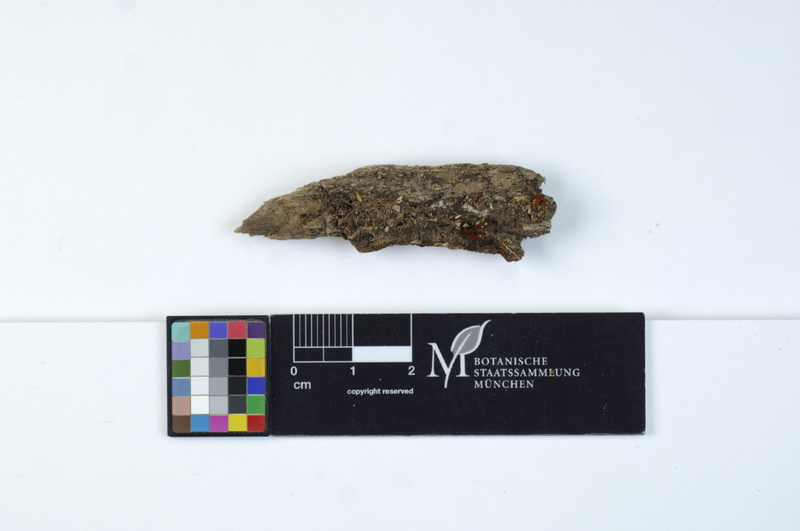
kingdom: Plantae
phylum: Tracheophyta
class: Magnoliopsida
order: Fagales
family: Fagaceae
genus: Fagus
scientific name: Fagus sylvatica
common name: Beech
